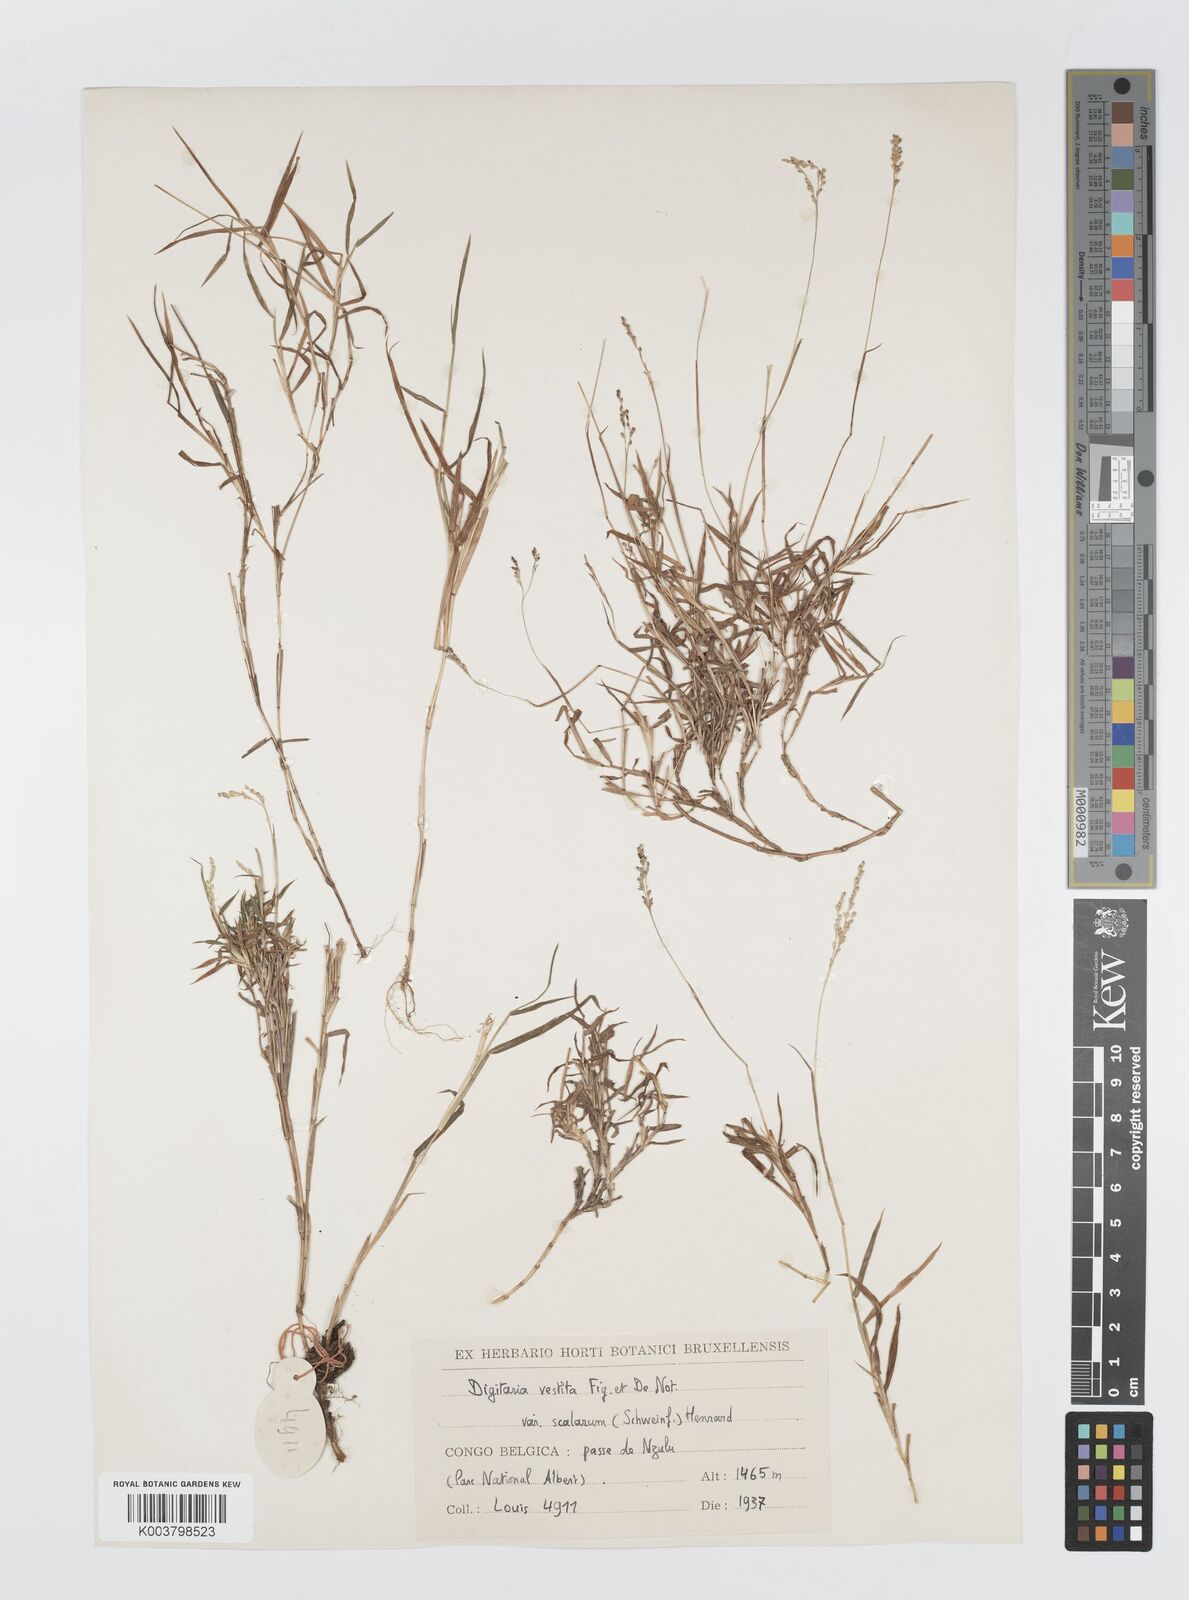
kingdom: Plantae
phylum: Tracheophyta
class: Liliopsida
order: Poales
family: Poaceae
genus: Digitaria
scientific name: Digitaria abyssinica
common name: African couchgrass
